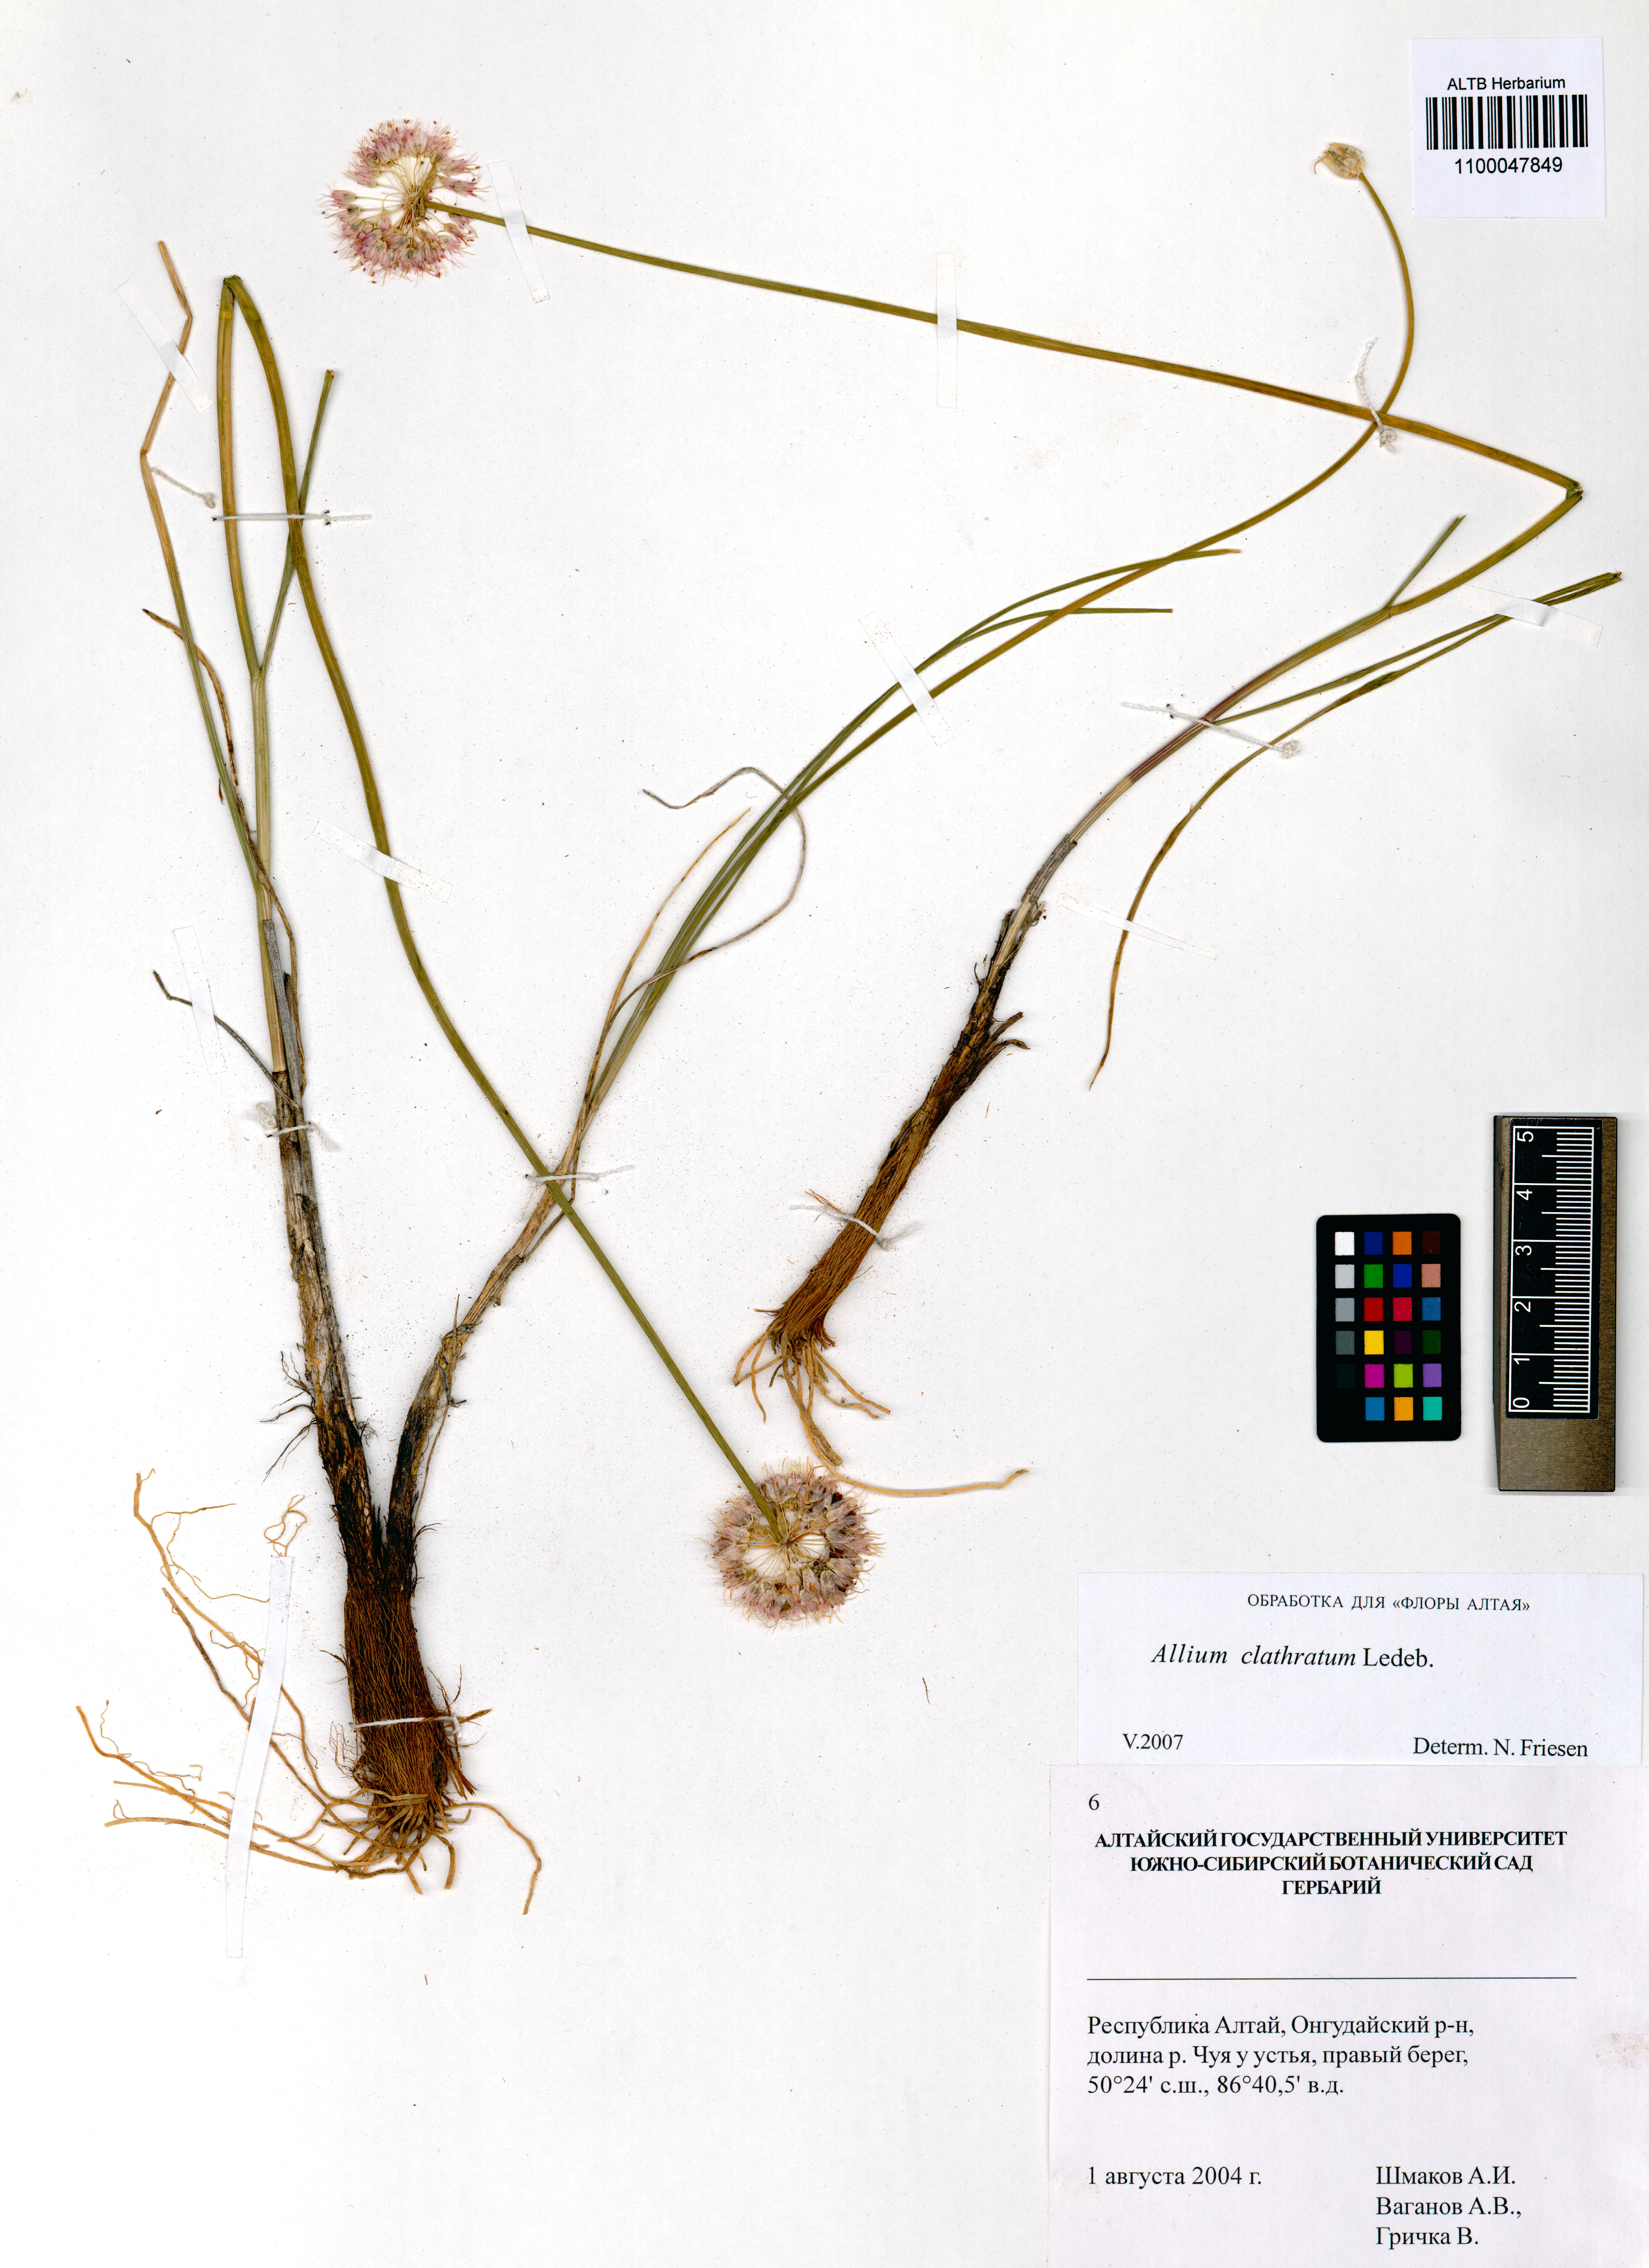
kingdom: Plantae
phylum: Tracheophyta
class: Liliopsida
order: Asparagales
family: Amaryllidaceae
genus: Allium
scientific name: Allium clathratum
